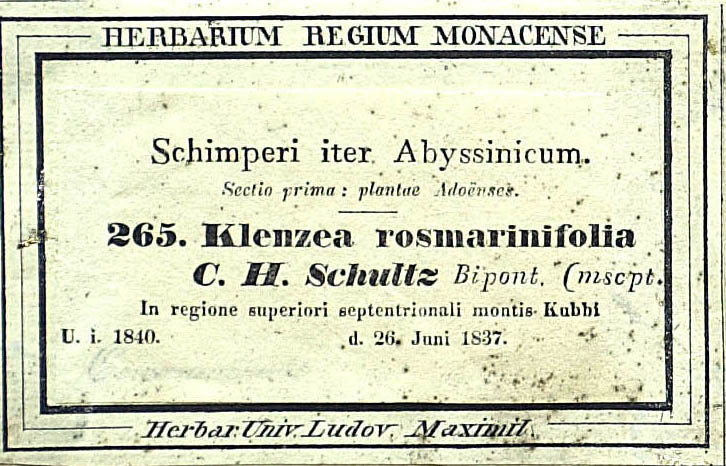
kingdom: Plantae
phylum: Tracheophyta
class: Magnoliopsida
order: Asterales
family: Asteraceae
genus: Athrixia
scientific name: Athrixia rosmarinifolia
